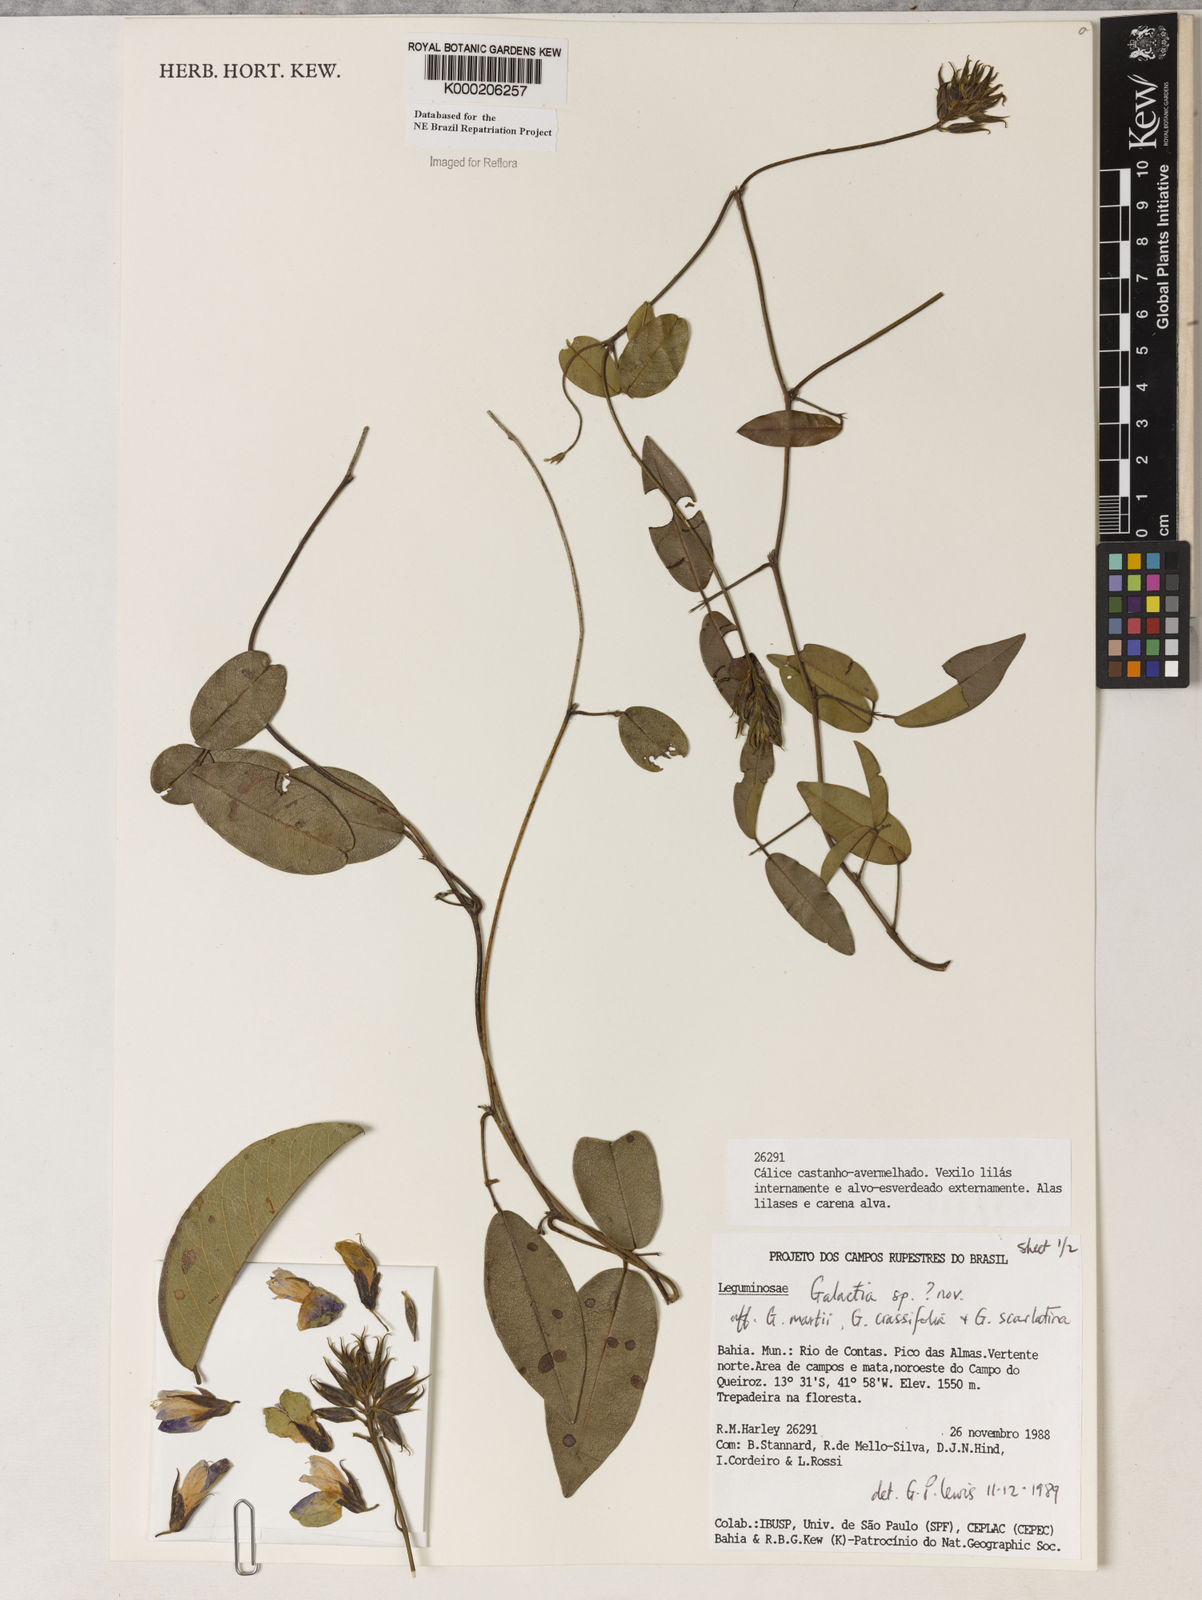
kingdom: Plantae
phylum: Tracheophyta
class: Magnoliopsida
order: Fabales
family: Fabaceae
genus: Galactia
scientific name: Galactia
